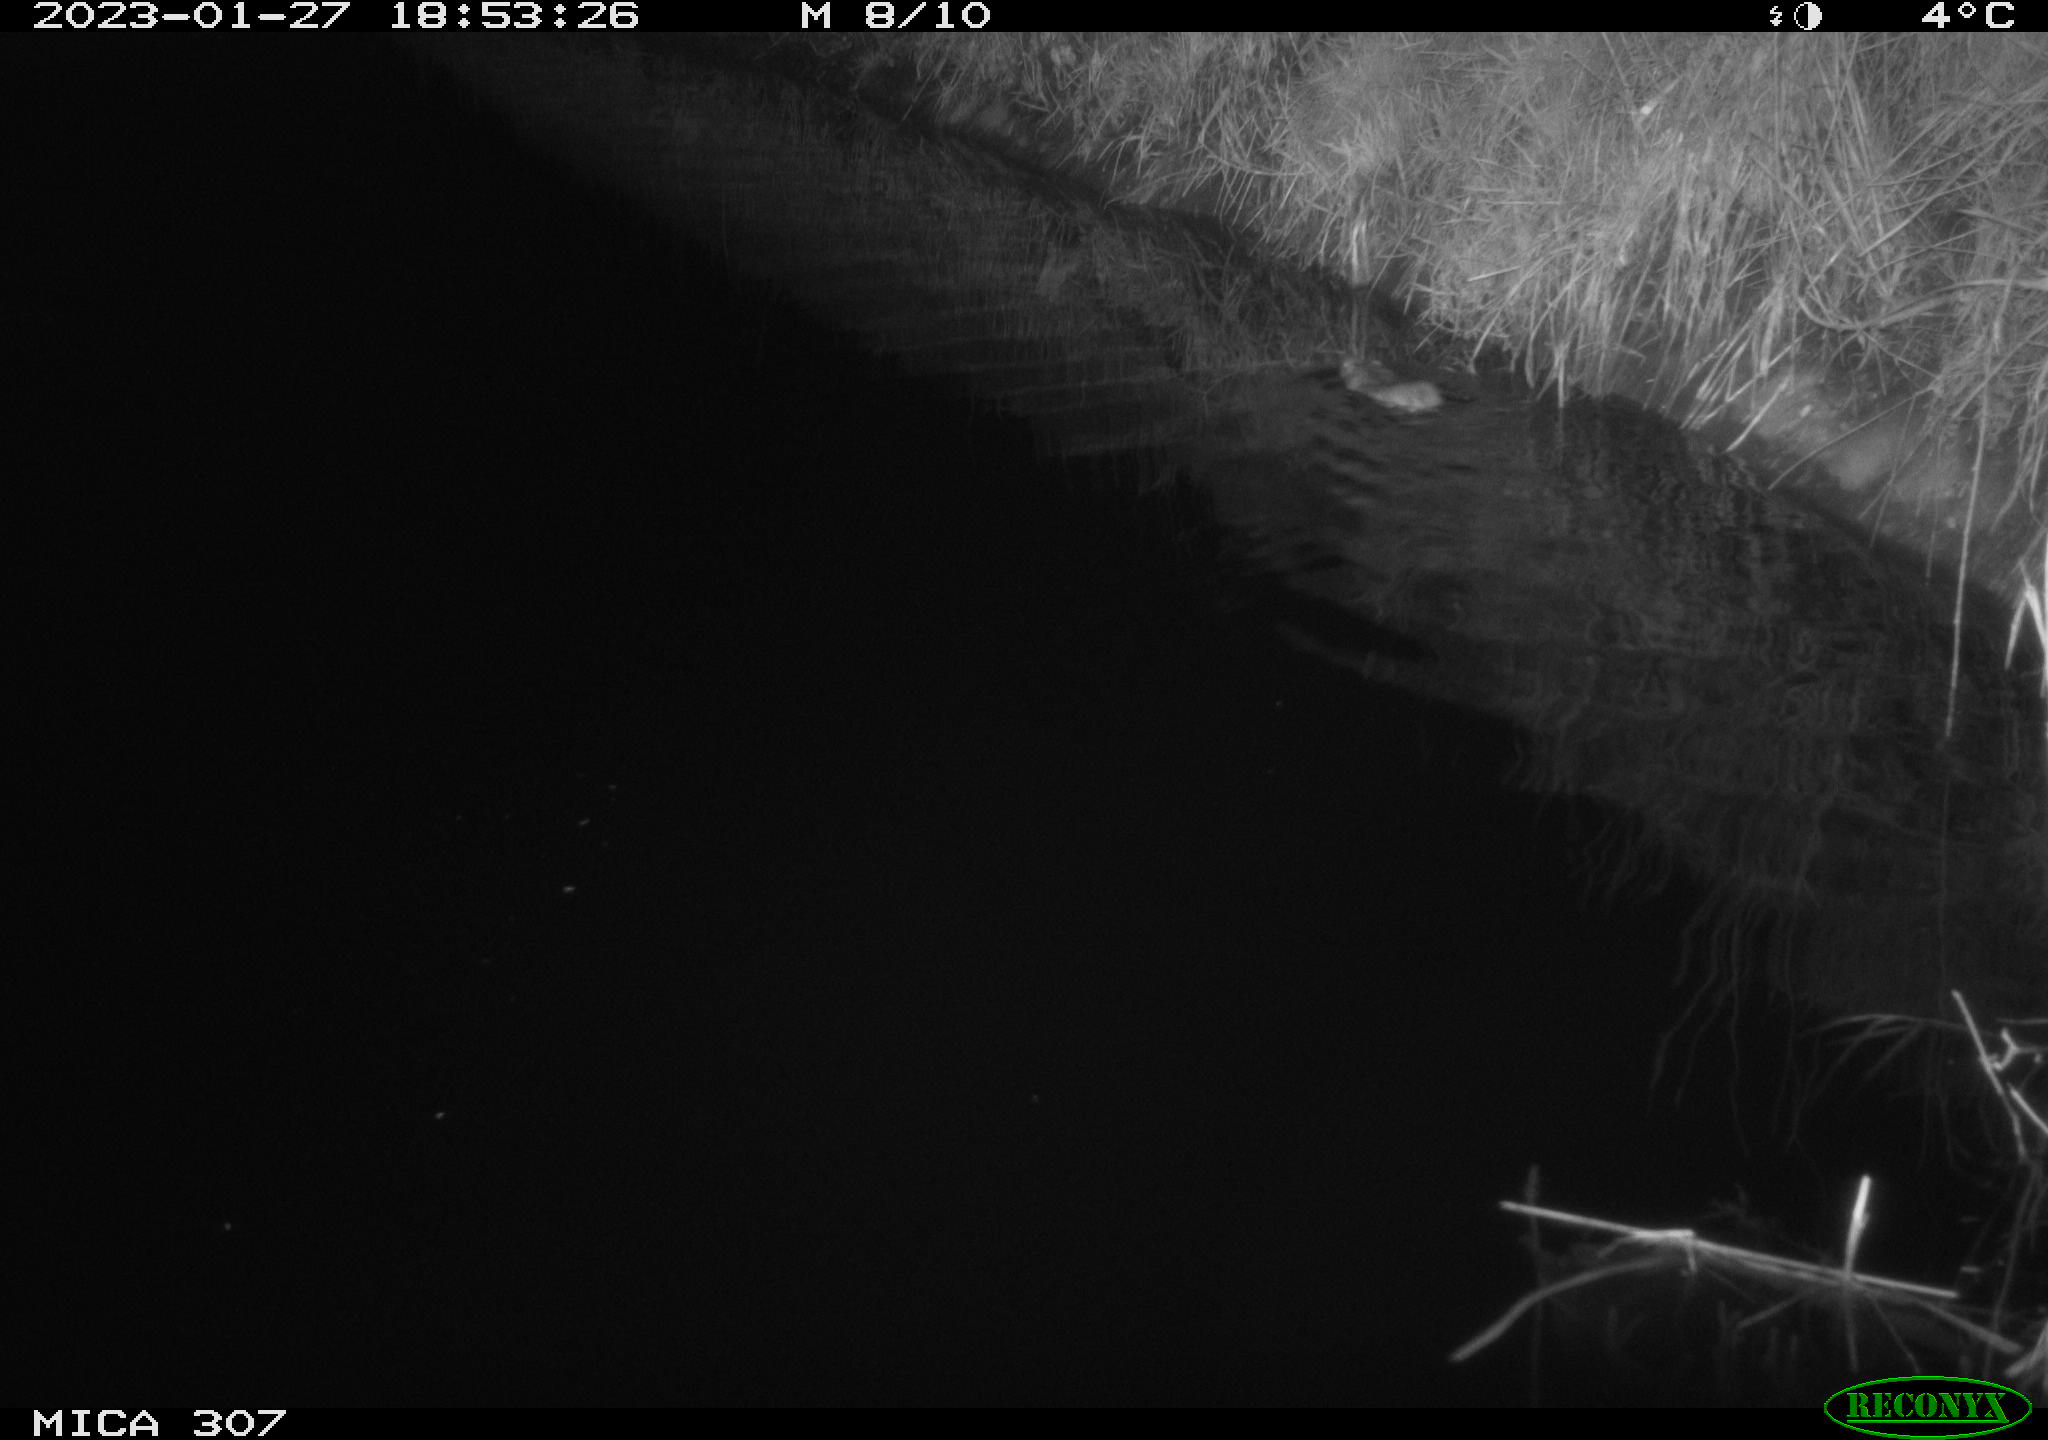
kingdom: Animalia
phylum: Chordata
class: Mammalia
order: Rodentia
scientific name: Rodentia
